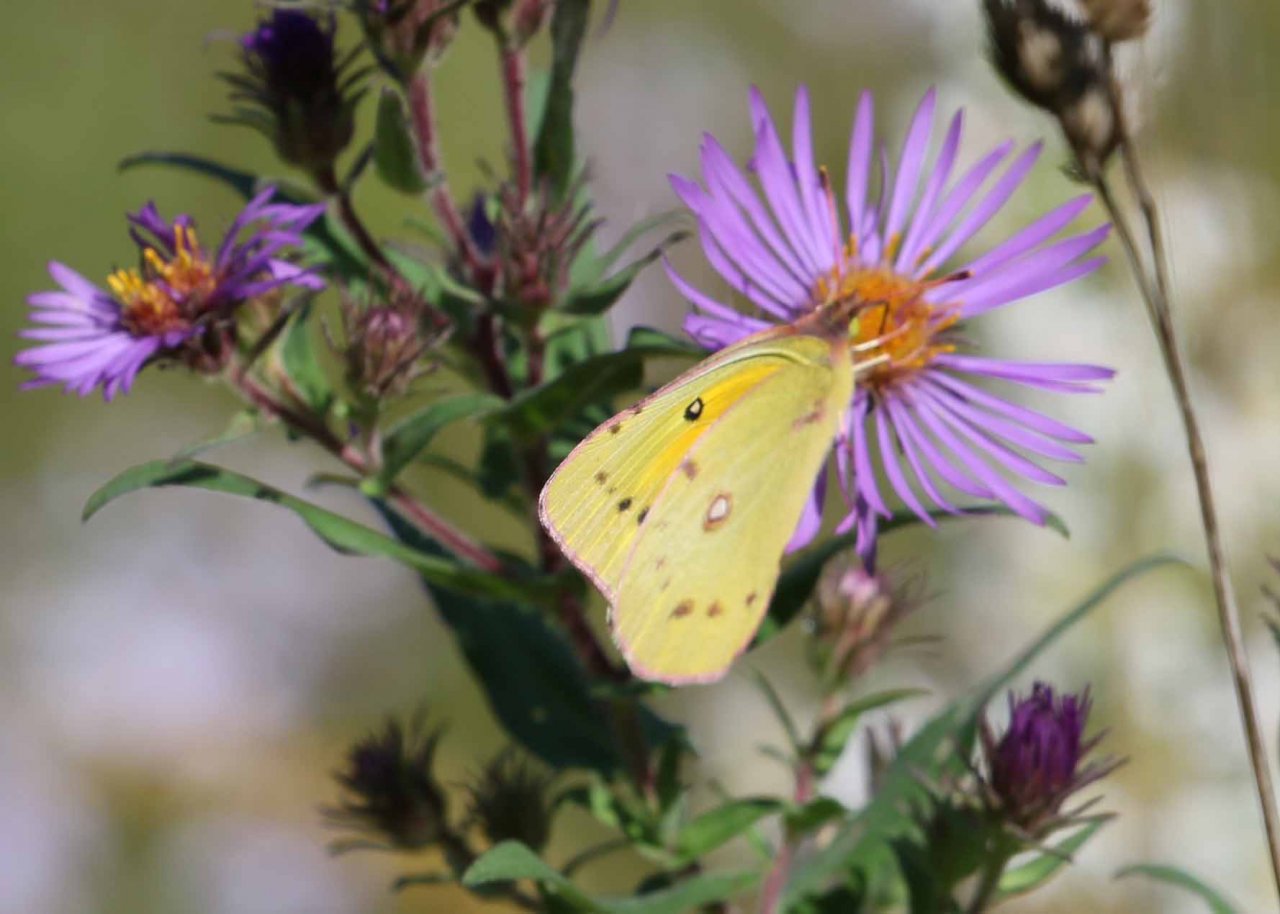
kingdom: Animalia
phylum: Arthropoda
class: Insecta
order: Lepidoptera
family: Pieridae
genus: Colias
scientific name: Colias eurytheme
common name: Orange Sulphur
